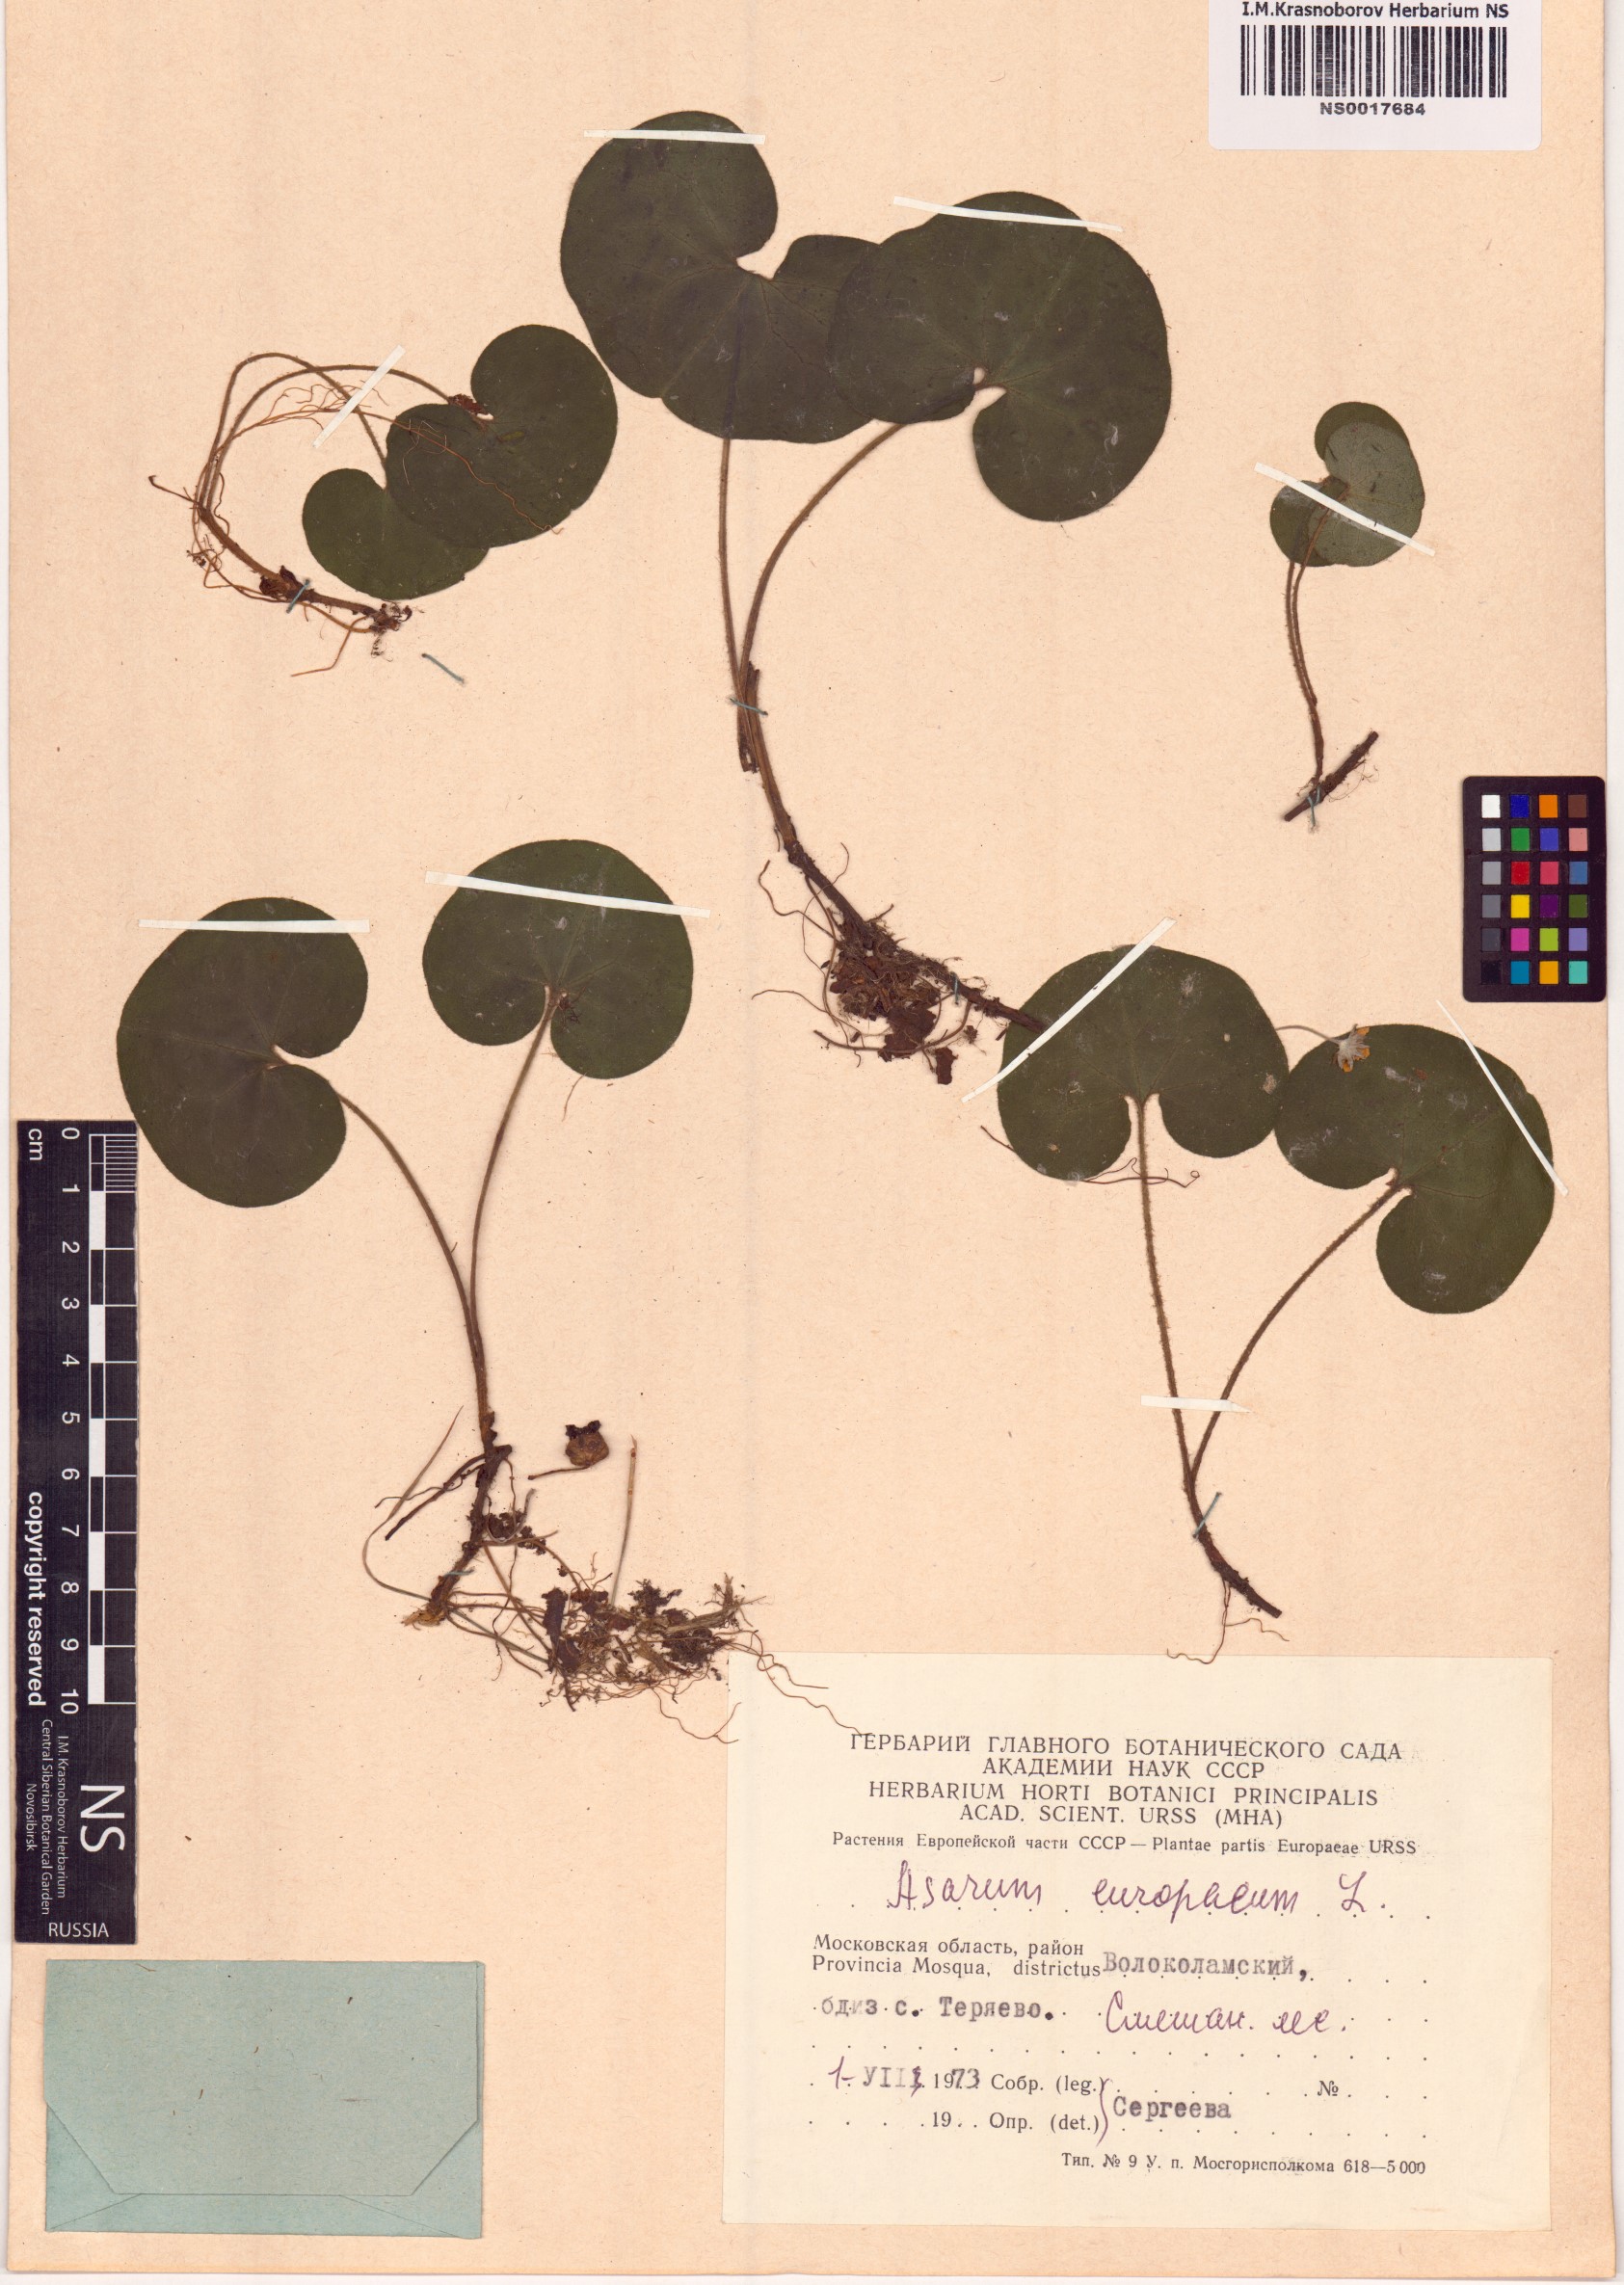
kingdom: Plantae
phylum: Tracheophyta
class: Magnoliopsida
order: Piperales
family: Aristolochiaceae
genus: Asarum
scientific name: Asarum europaeum
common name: Asarabacca
